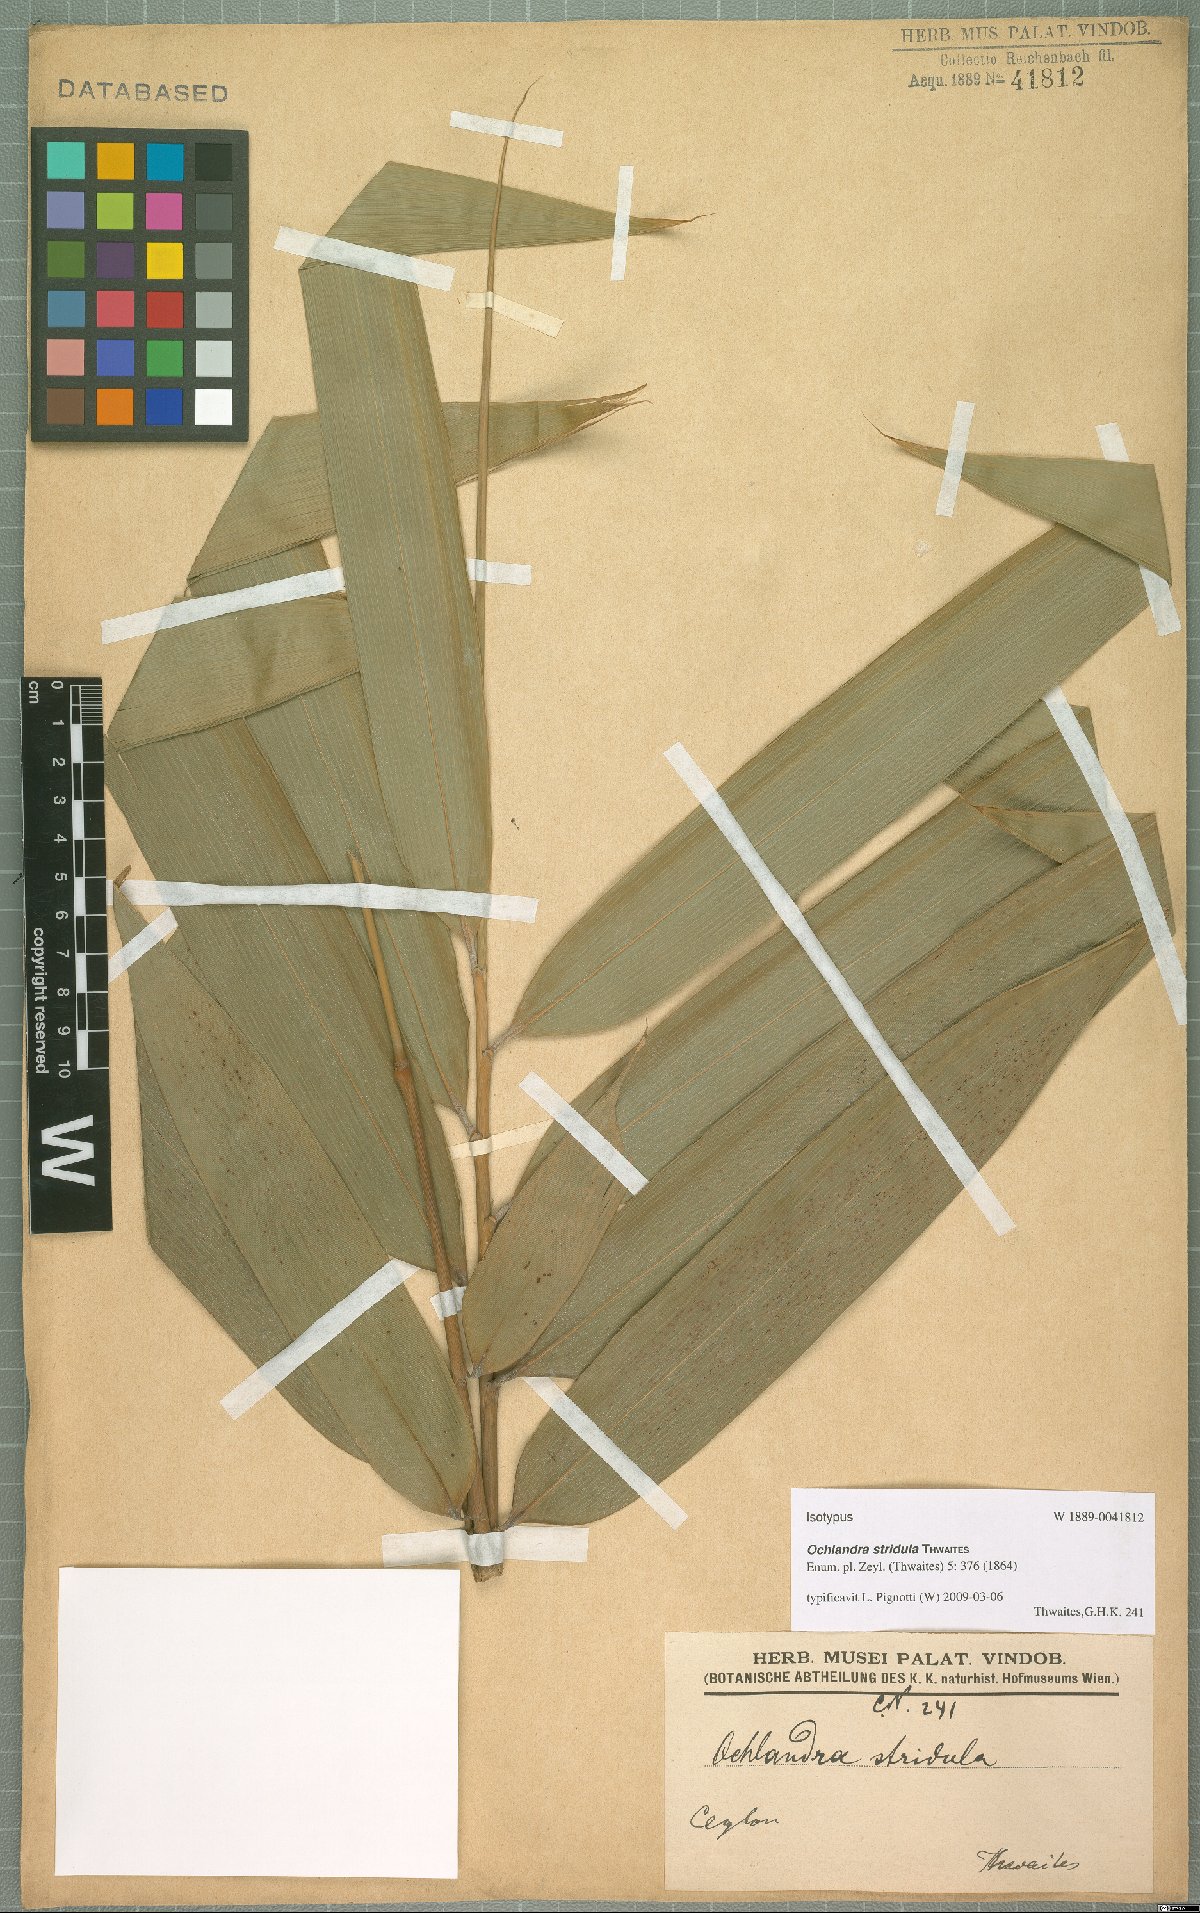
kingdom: Plantae
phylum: Tracheophyta
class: Liliopsida
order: Poales
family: Poaceae
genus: Ochlandra
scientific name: Ochlandra stridula
